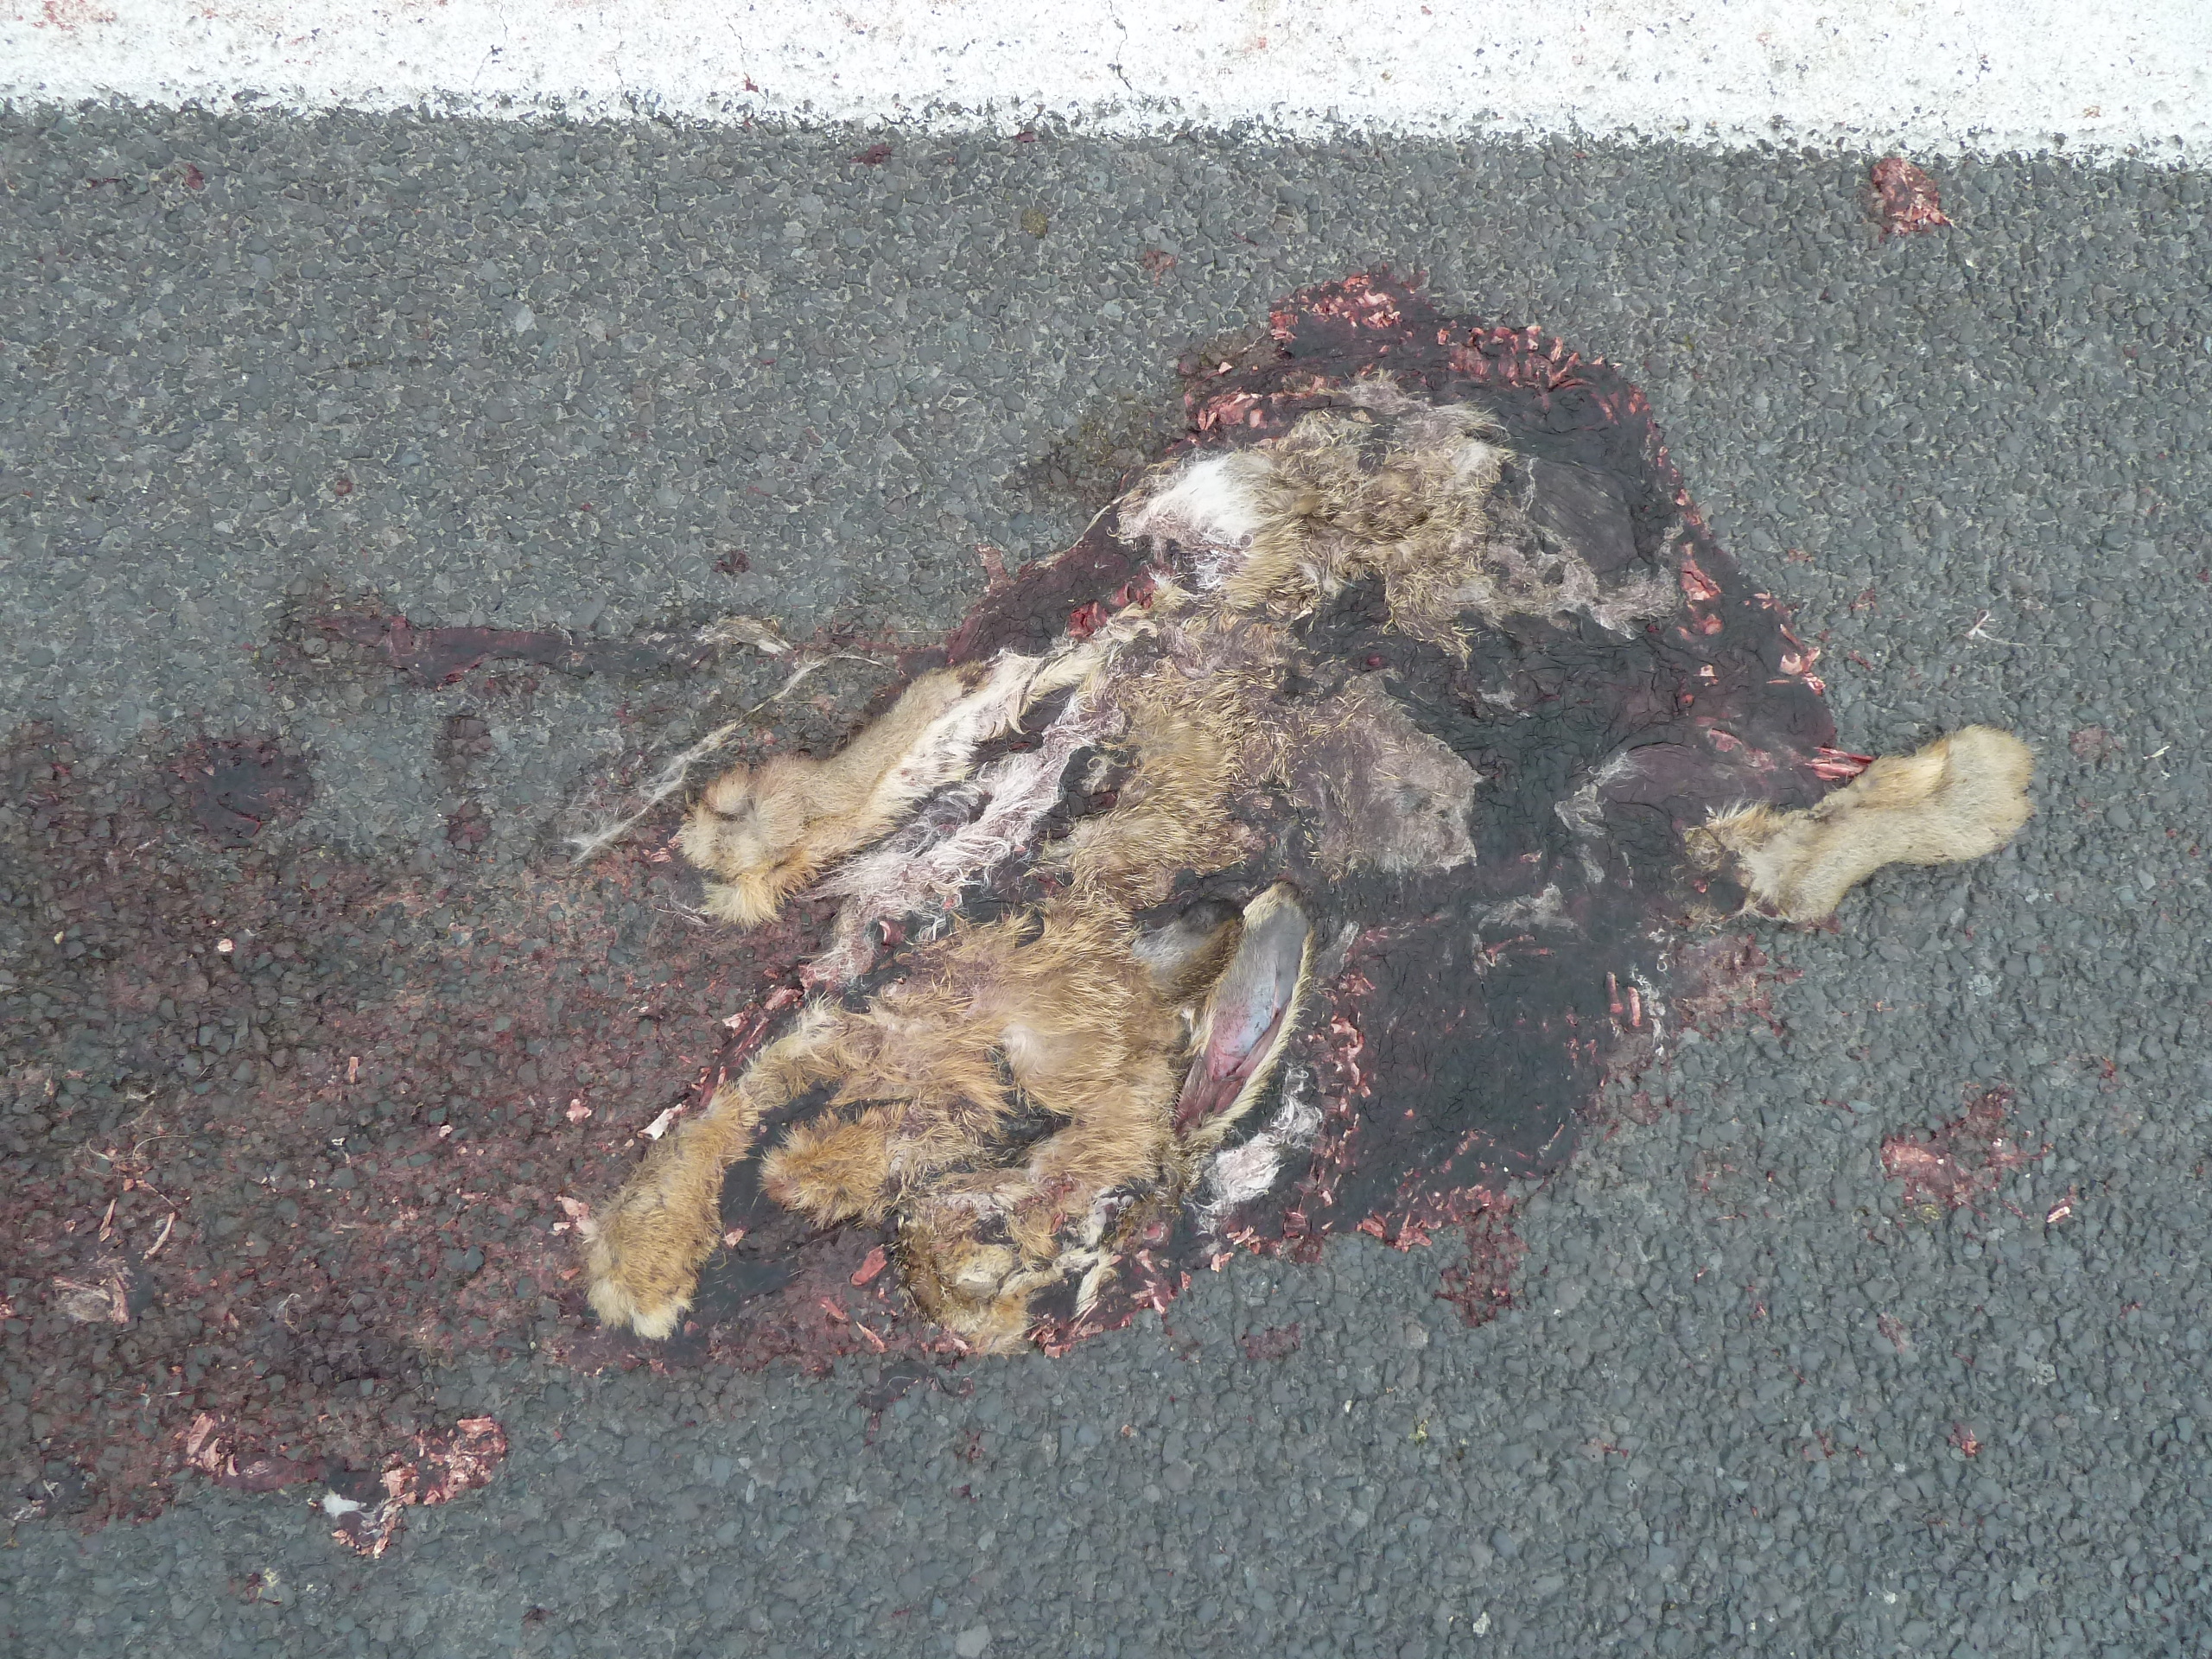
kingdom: Animalia
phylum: Chordata
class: Mammalia
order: Lagomorpha
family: Leporidae
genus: Lepus
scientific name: Lepus europaeus
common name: European hare
